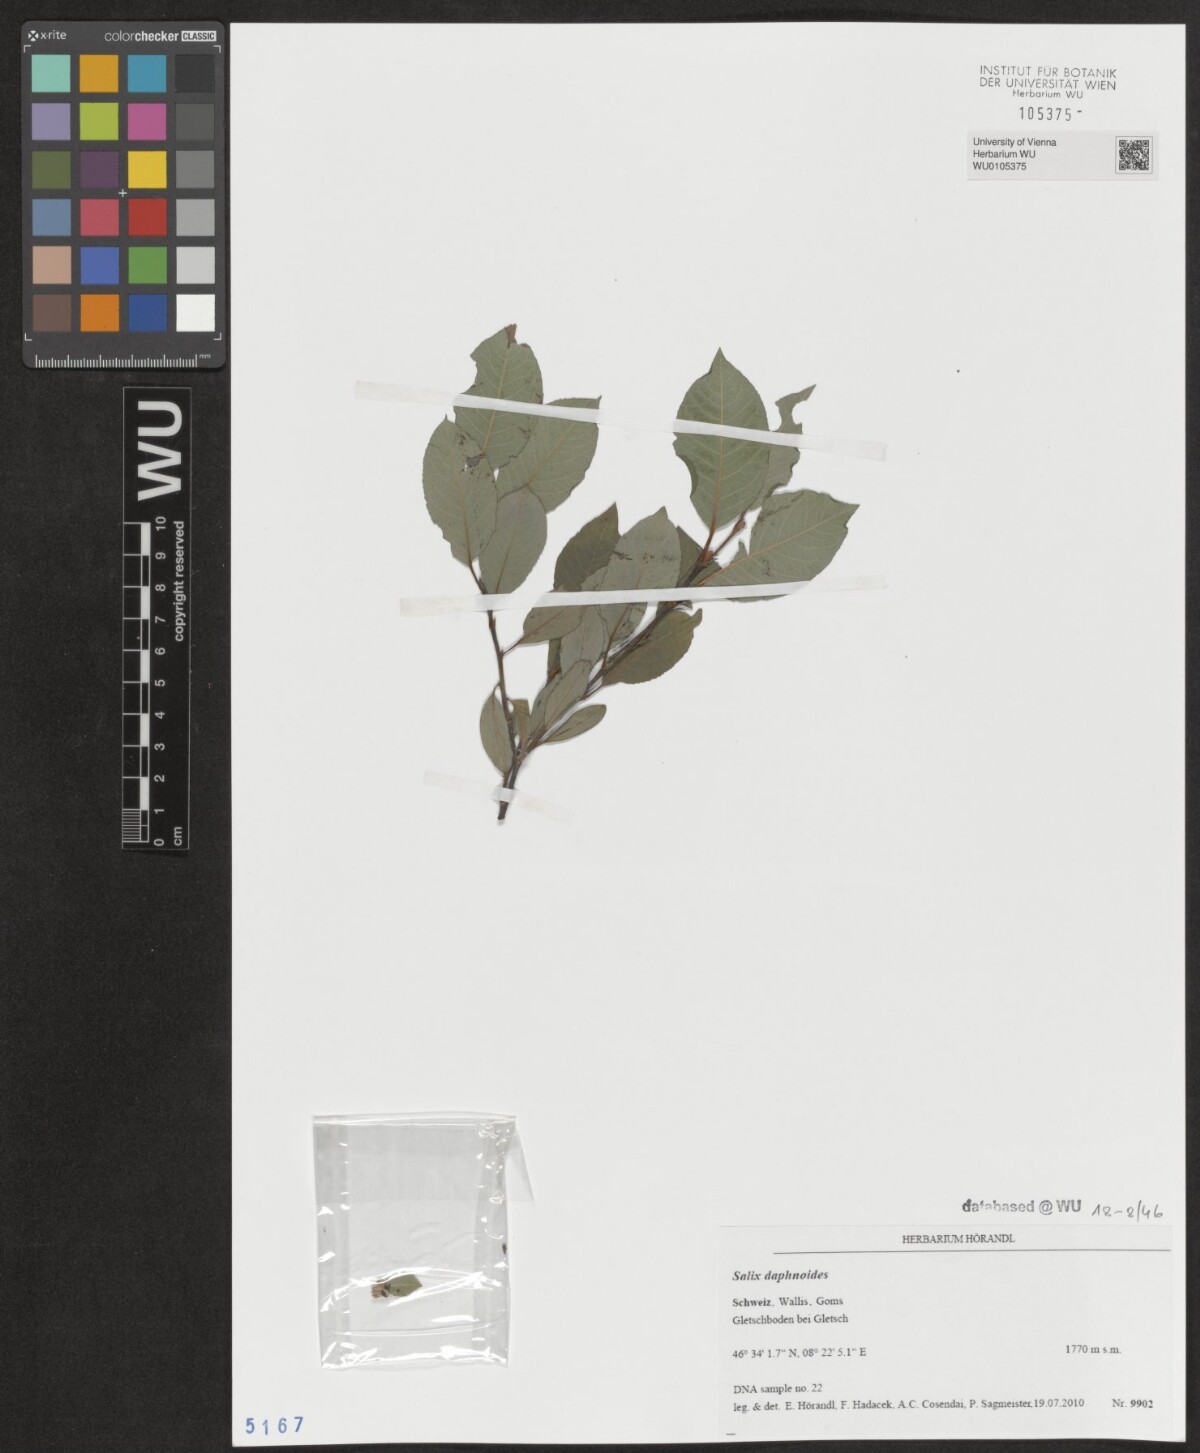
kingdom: Plantae
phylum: Tracheophyta
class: Magnoliopsida
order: Malpighiales
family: Salicaceae
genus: Salix
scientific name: Salix daphnoides
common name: European violet-willow
